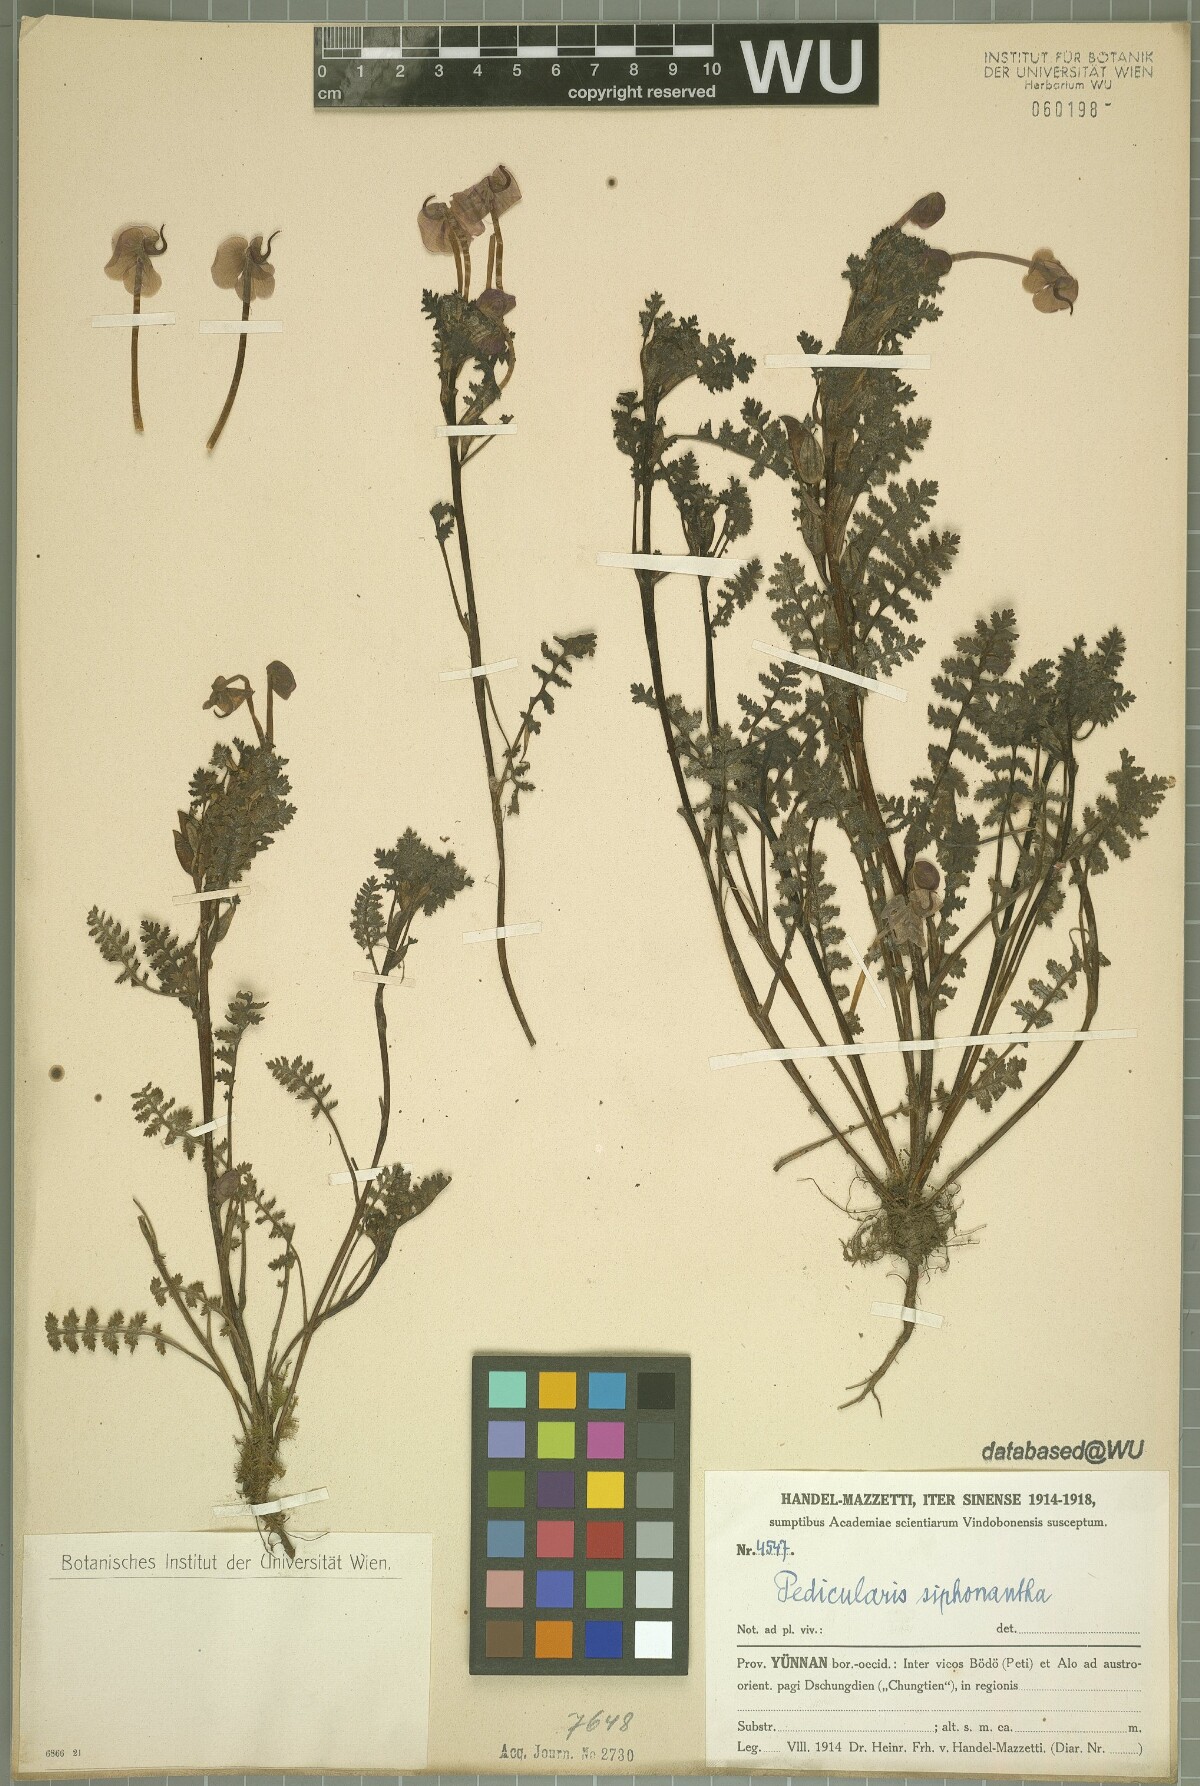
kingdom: Plantae
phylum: Tracheophyta
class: Magnoliopsida
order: Lamiales
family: Orobanchaceae
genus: Pedicularis
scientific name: Pedicularis siphonantha
